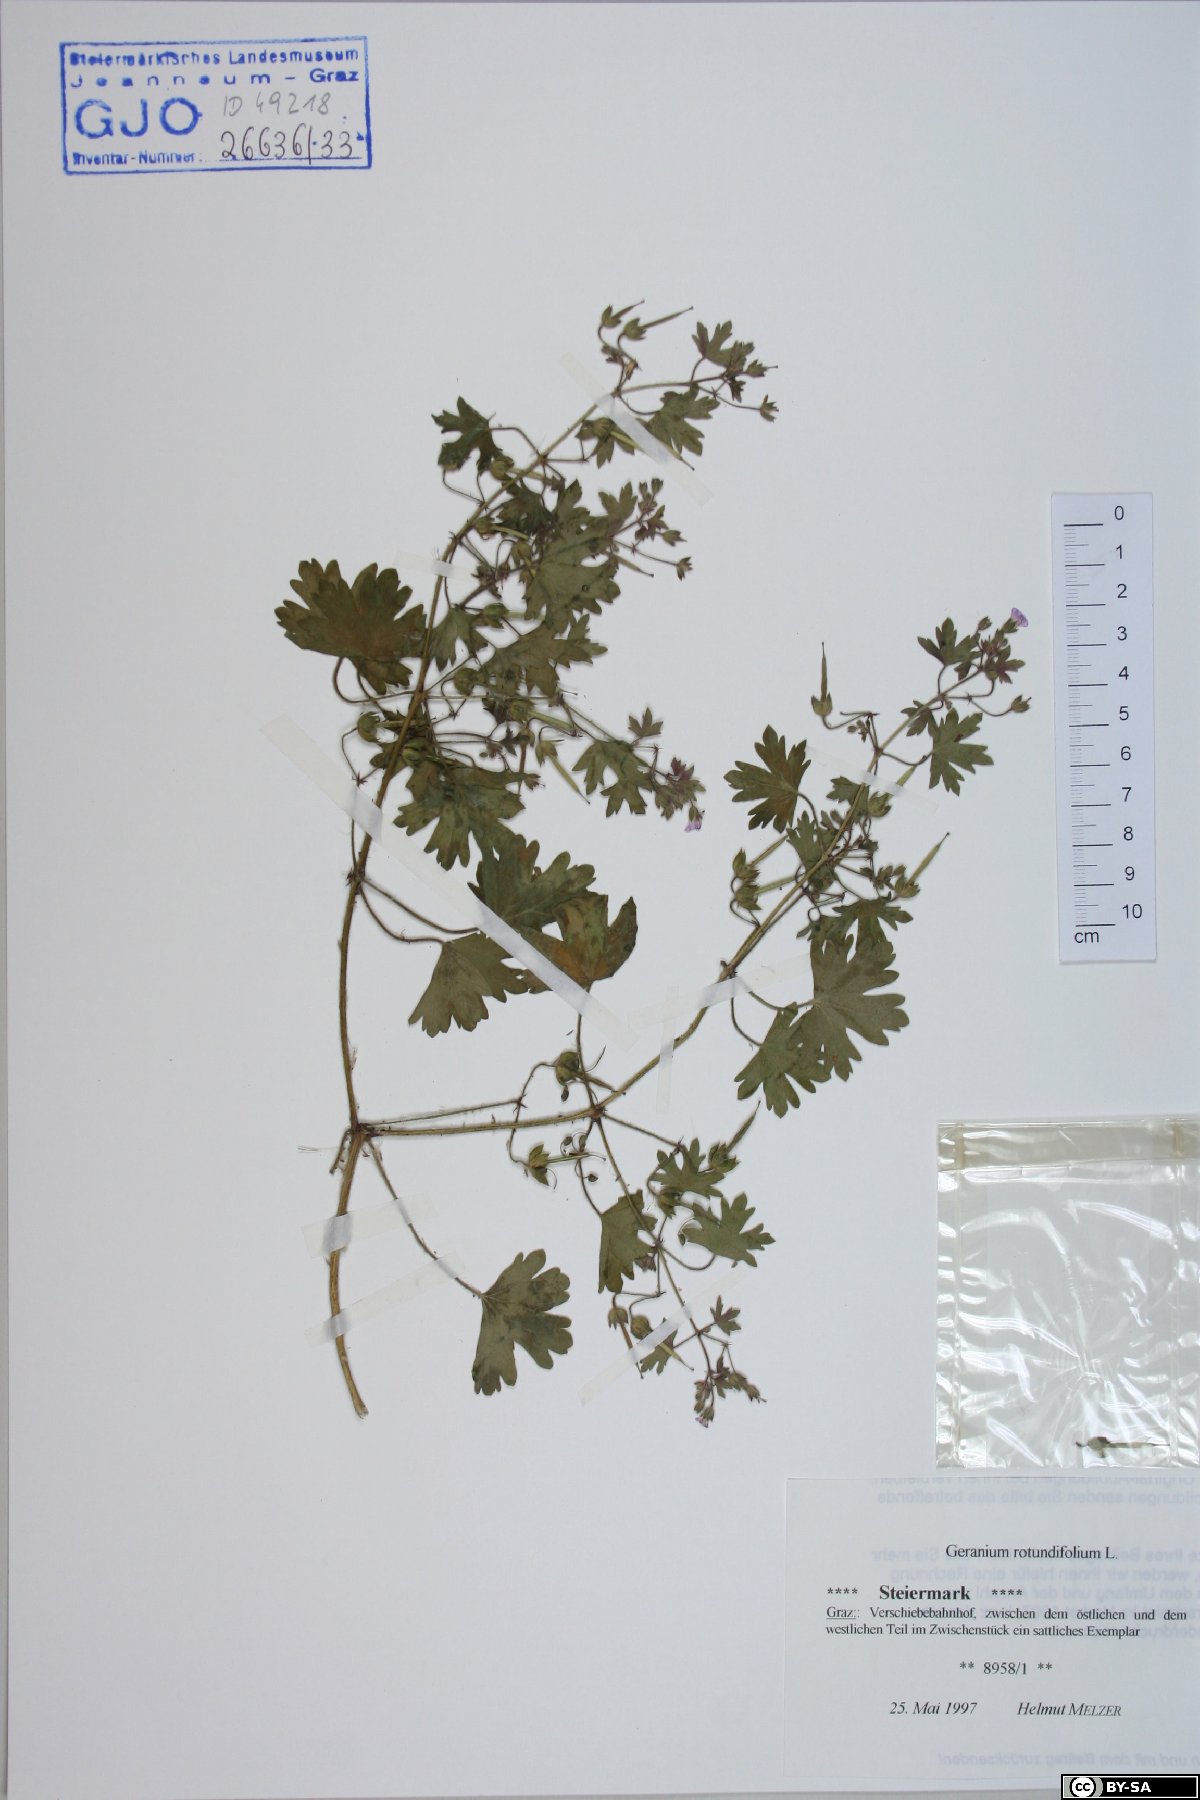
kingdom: Plantae
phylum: Tracheophyta
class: Magnoliopsida
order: Geraniales
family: Geraniaceae
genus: Geranium
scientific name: Geranium rotundifolium
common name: Round-leaved crane's-bill
